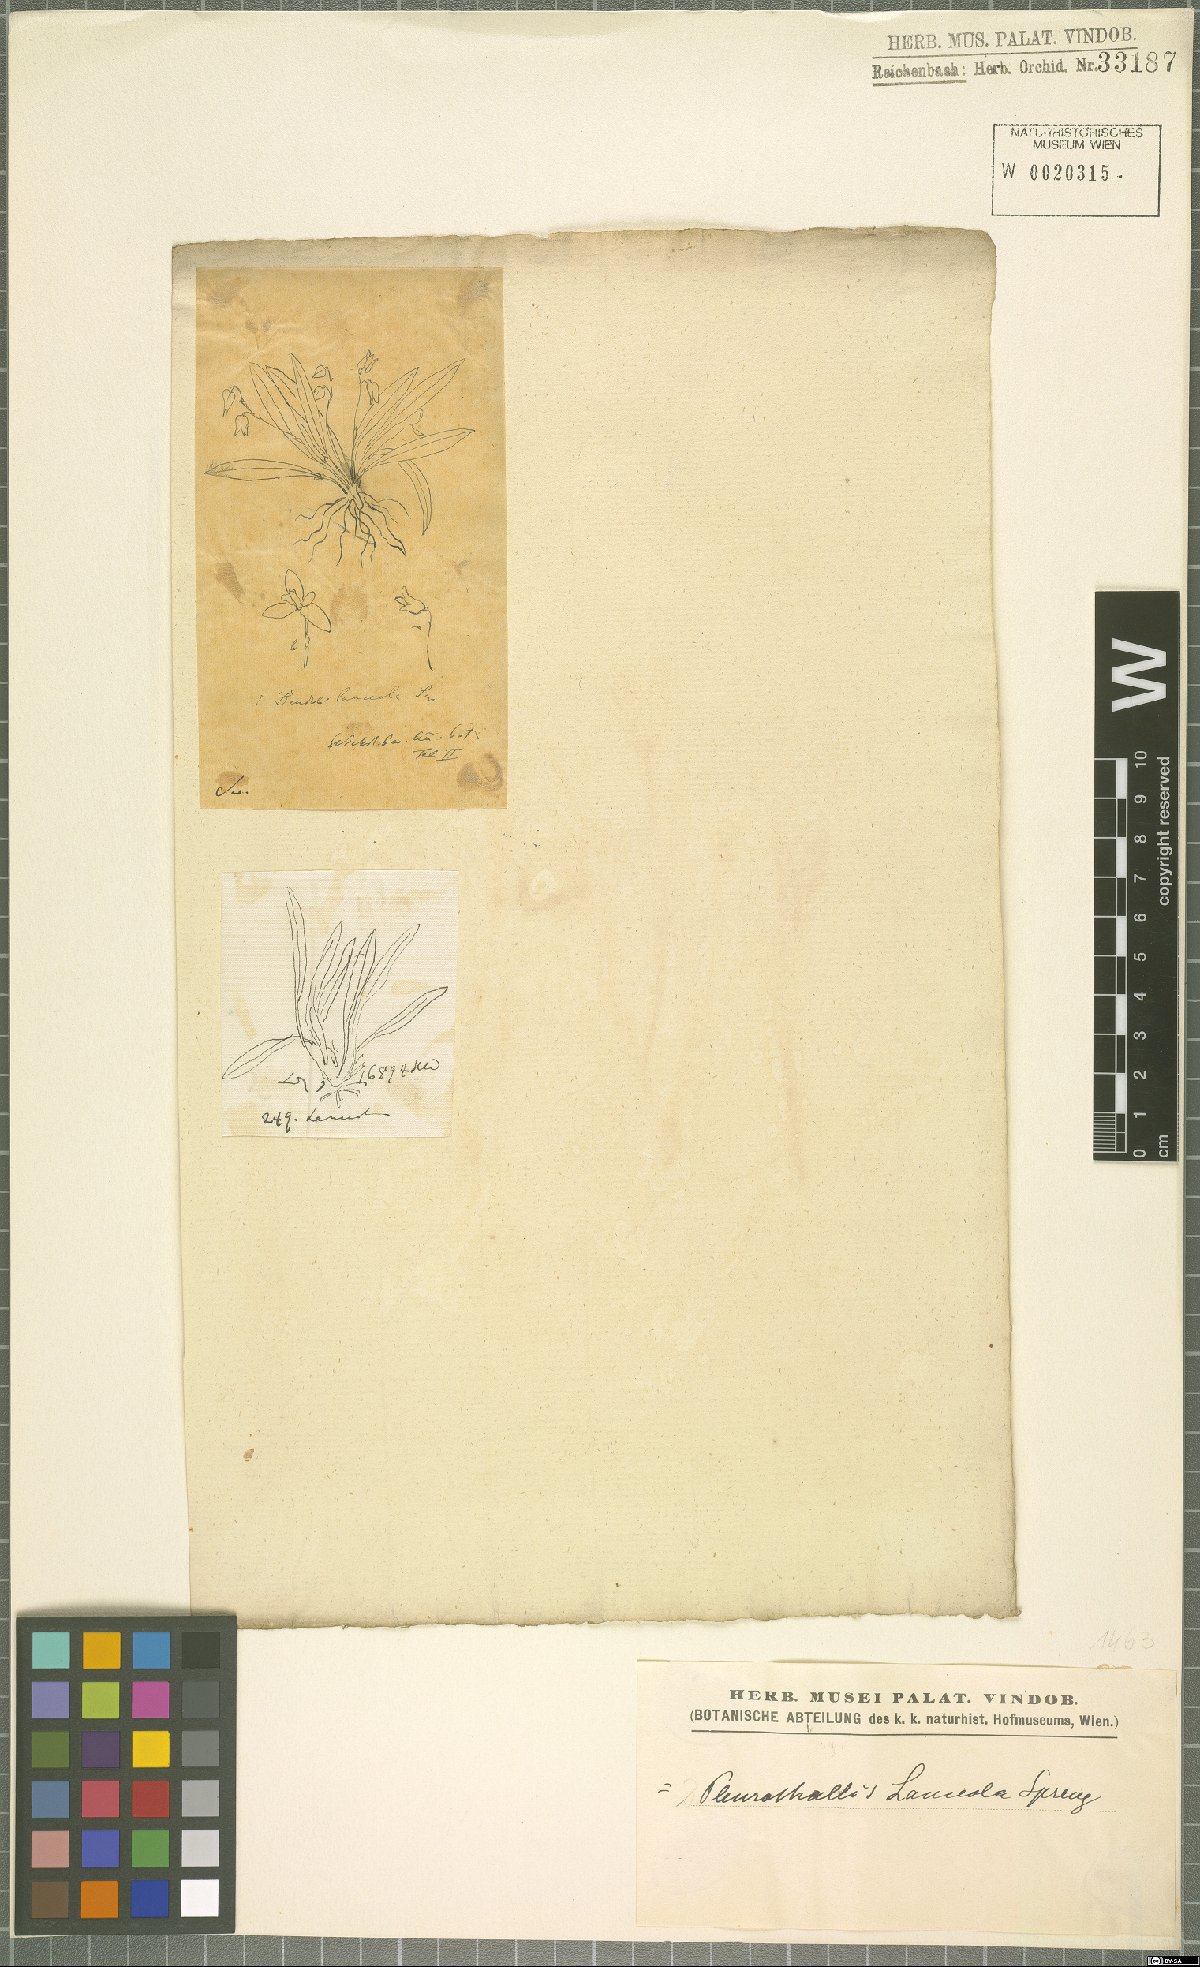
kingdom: Plantae
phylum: Tracheophyta
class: Liliopsida
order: Asparagales
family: Orchidaceae
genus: Specklinia
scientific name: Specklinia lanceola
